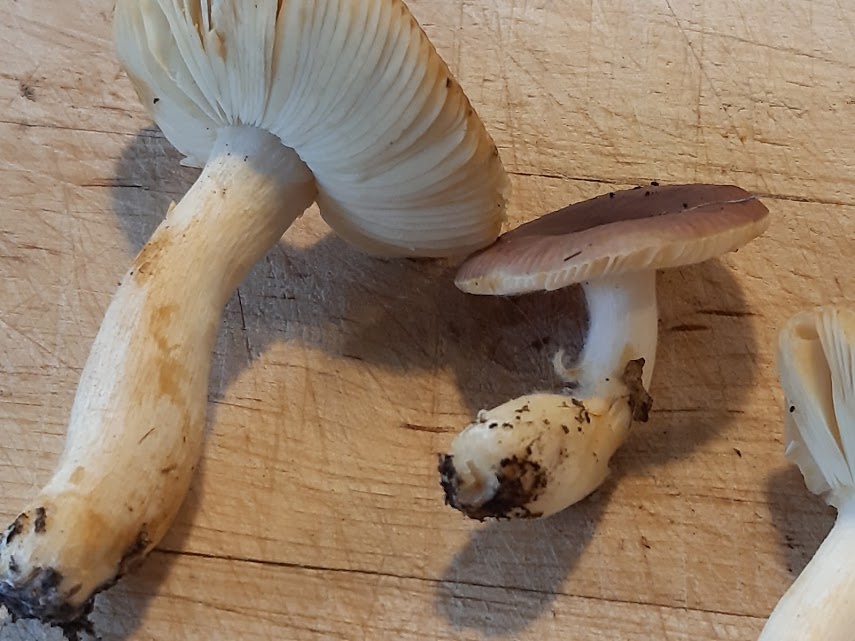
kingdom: Fungi
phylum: Basidiomycota
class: Agaricomycetes
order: Russulales
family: Russulaceae
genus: Russula
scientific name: Russula
